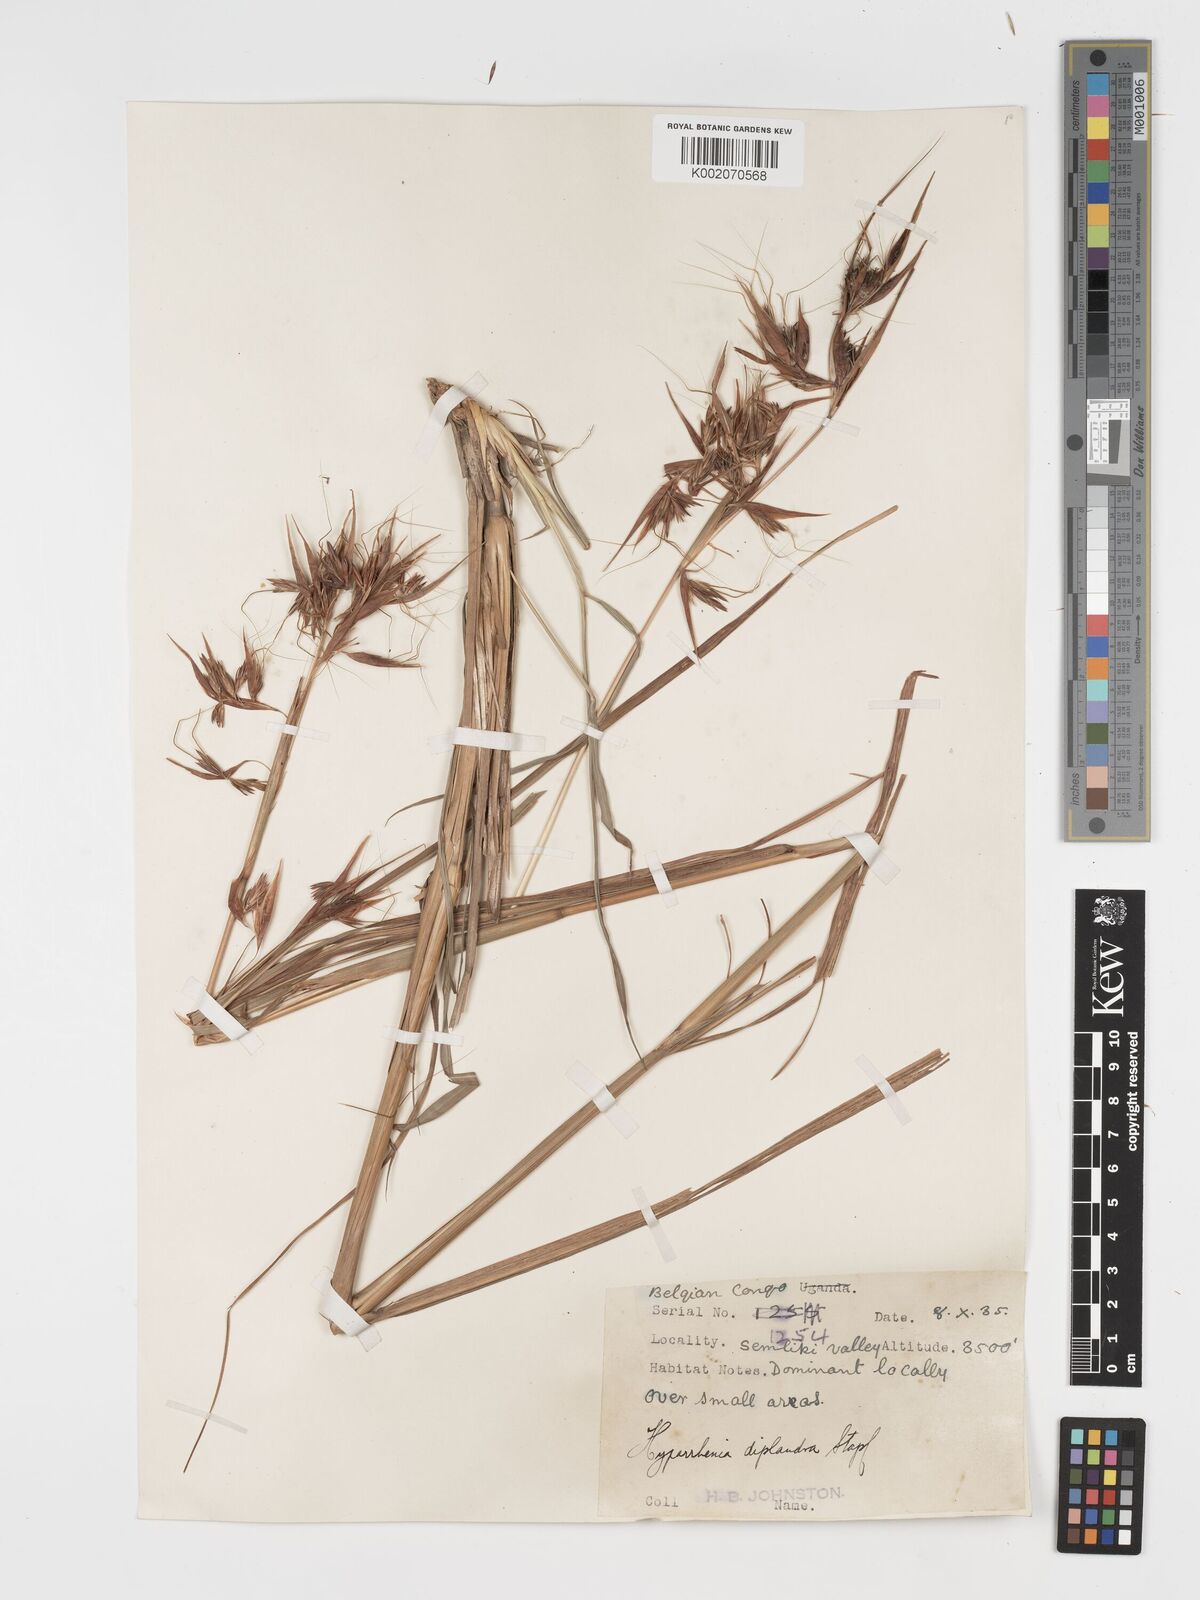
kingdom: Plantae
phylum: Tracheophyta
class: Liliopsida
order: Poales
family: Poaceae
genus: Hyparrhenia
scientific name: Hyparrhenia diplandra
